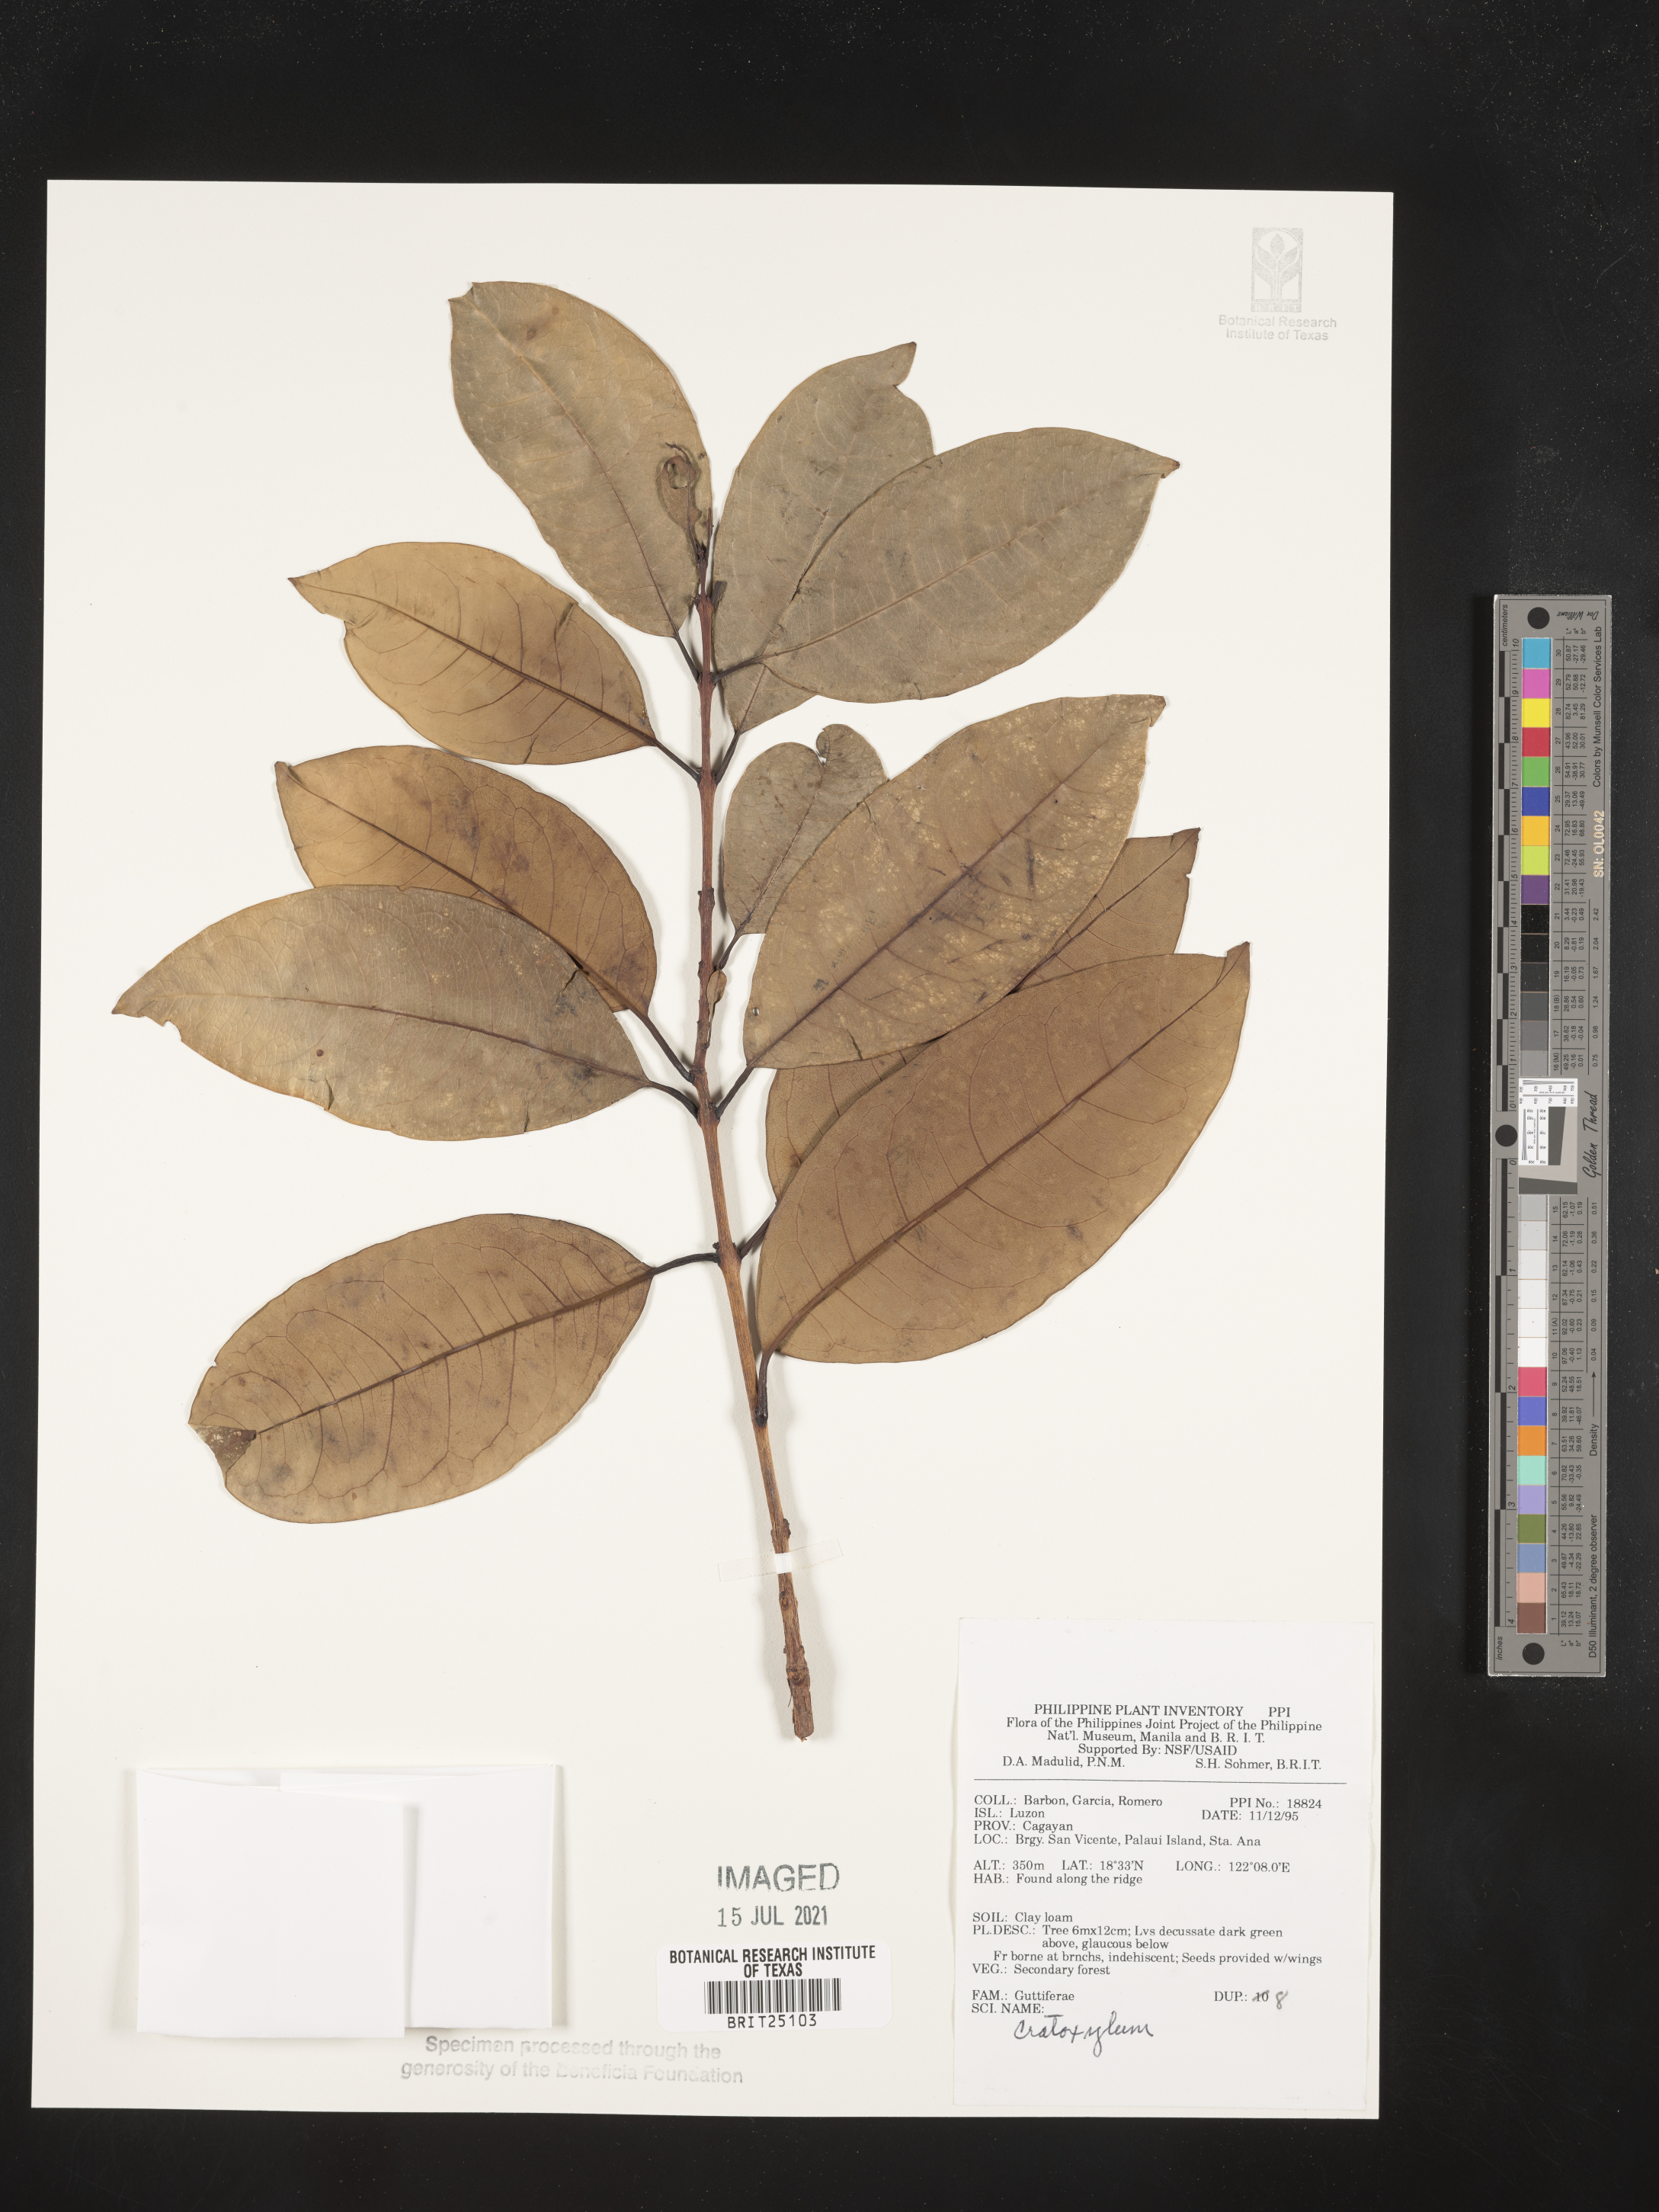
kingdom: Plantae
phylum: Tracheophyta
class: Magnoliopsida
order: Malpighiales
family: Hypericaceae
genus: Cratoxylum
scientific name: Cratoxylum
